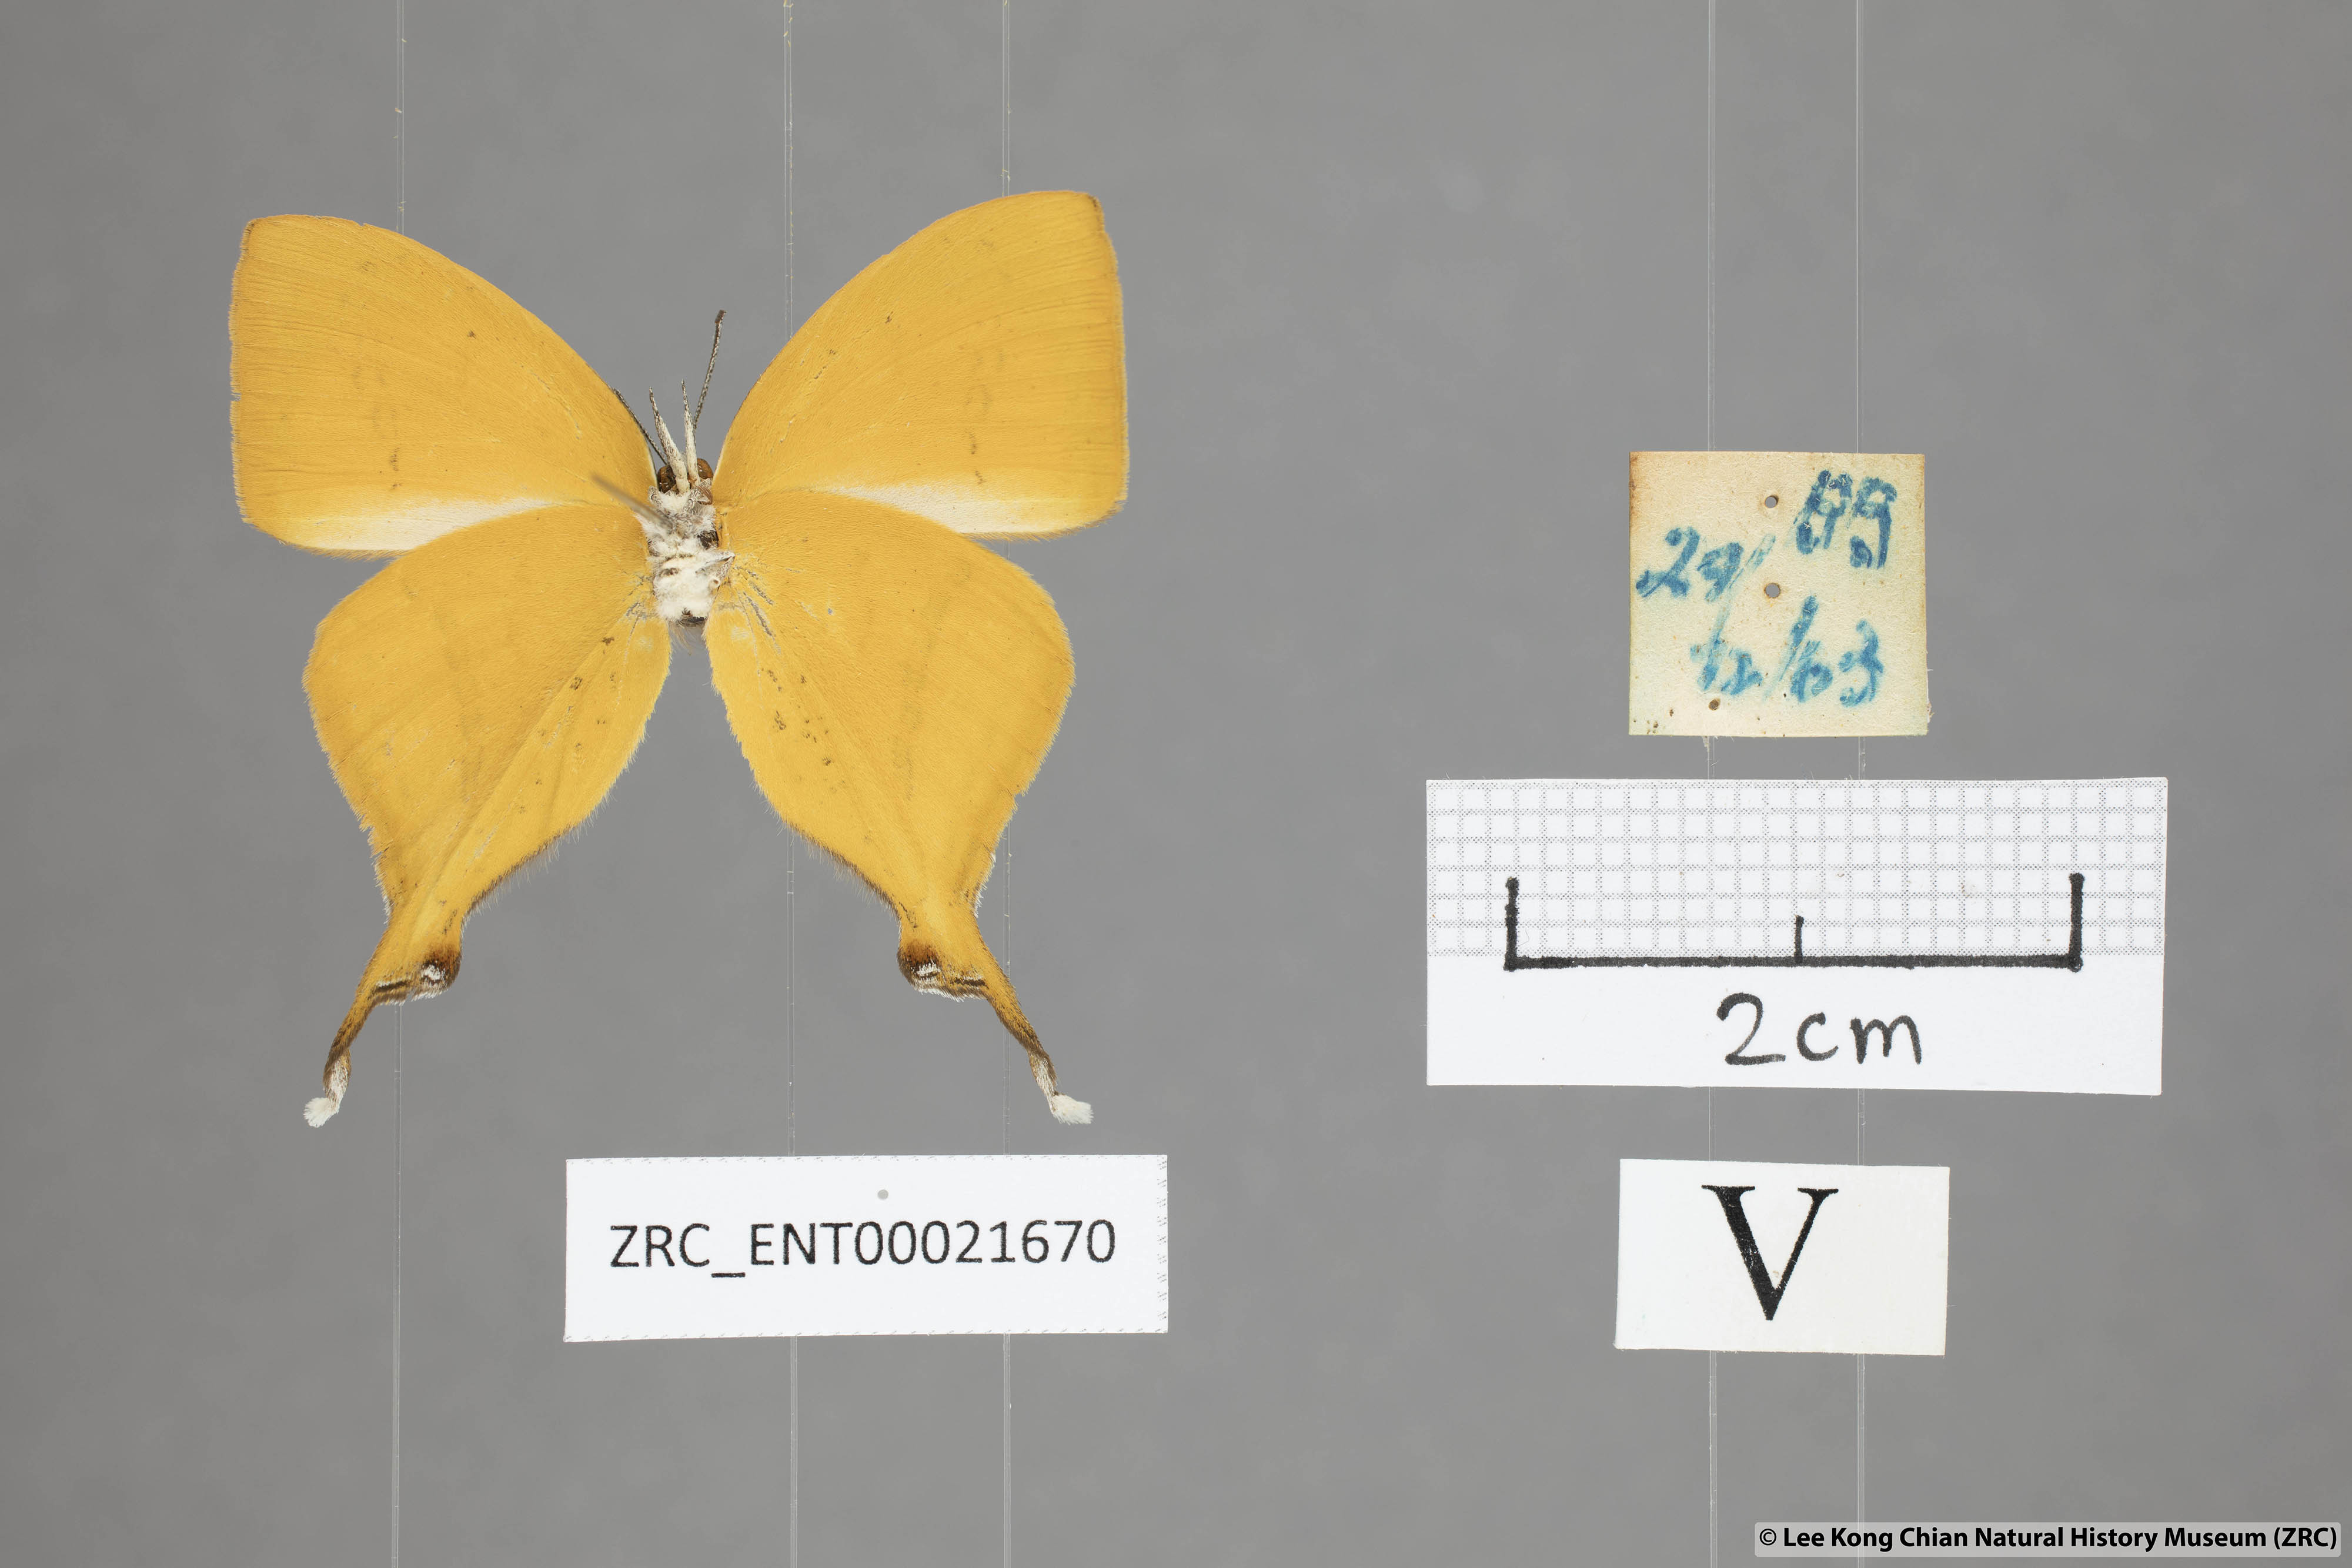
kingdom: Animalia
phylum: Arthropoda
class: Insecta
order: Lepidoptera
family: Lycaenidae
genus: Loxura
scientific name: Loxura atymnus
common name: Common yamfly
